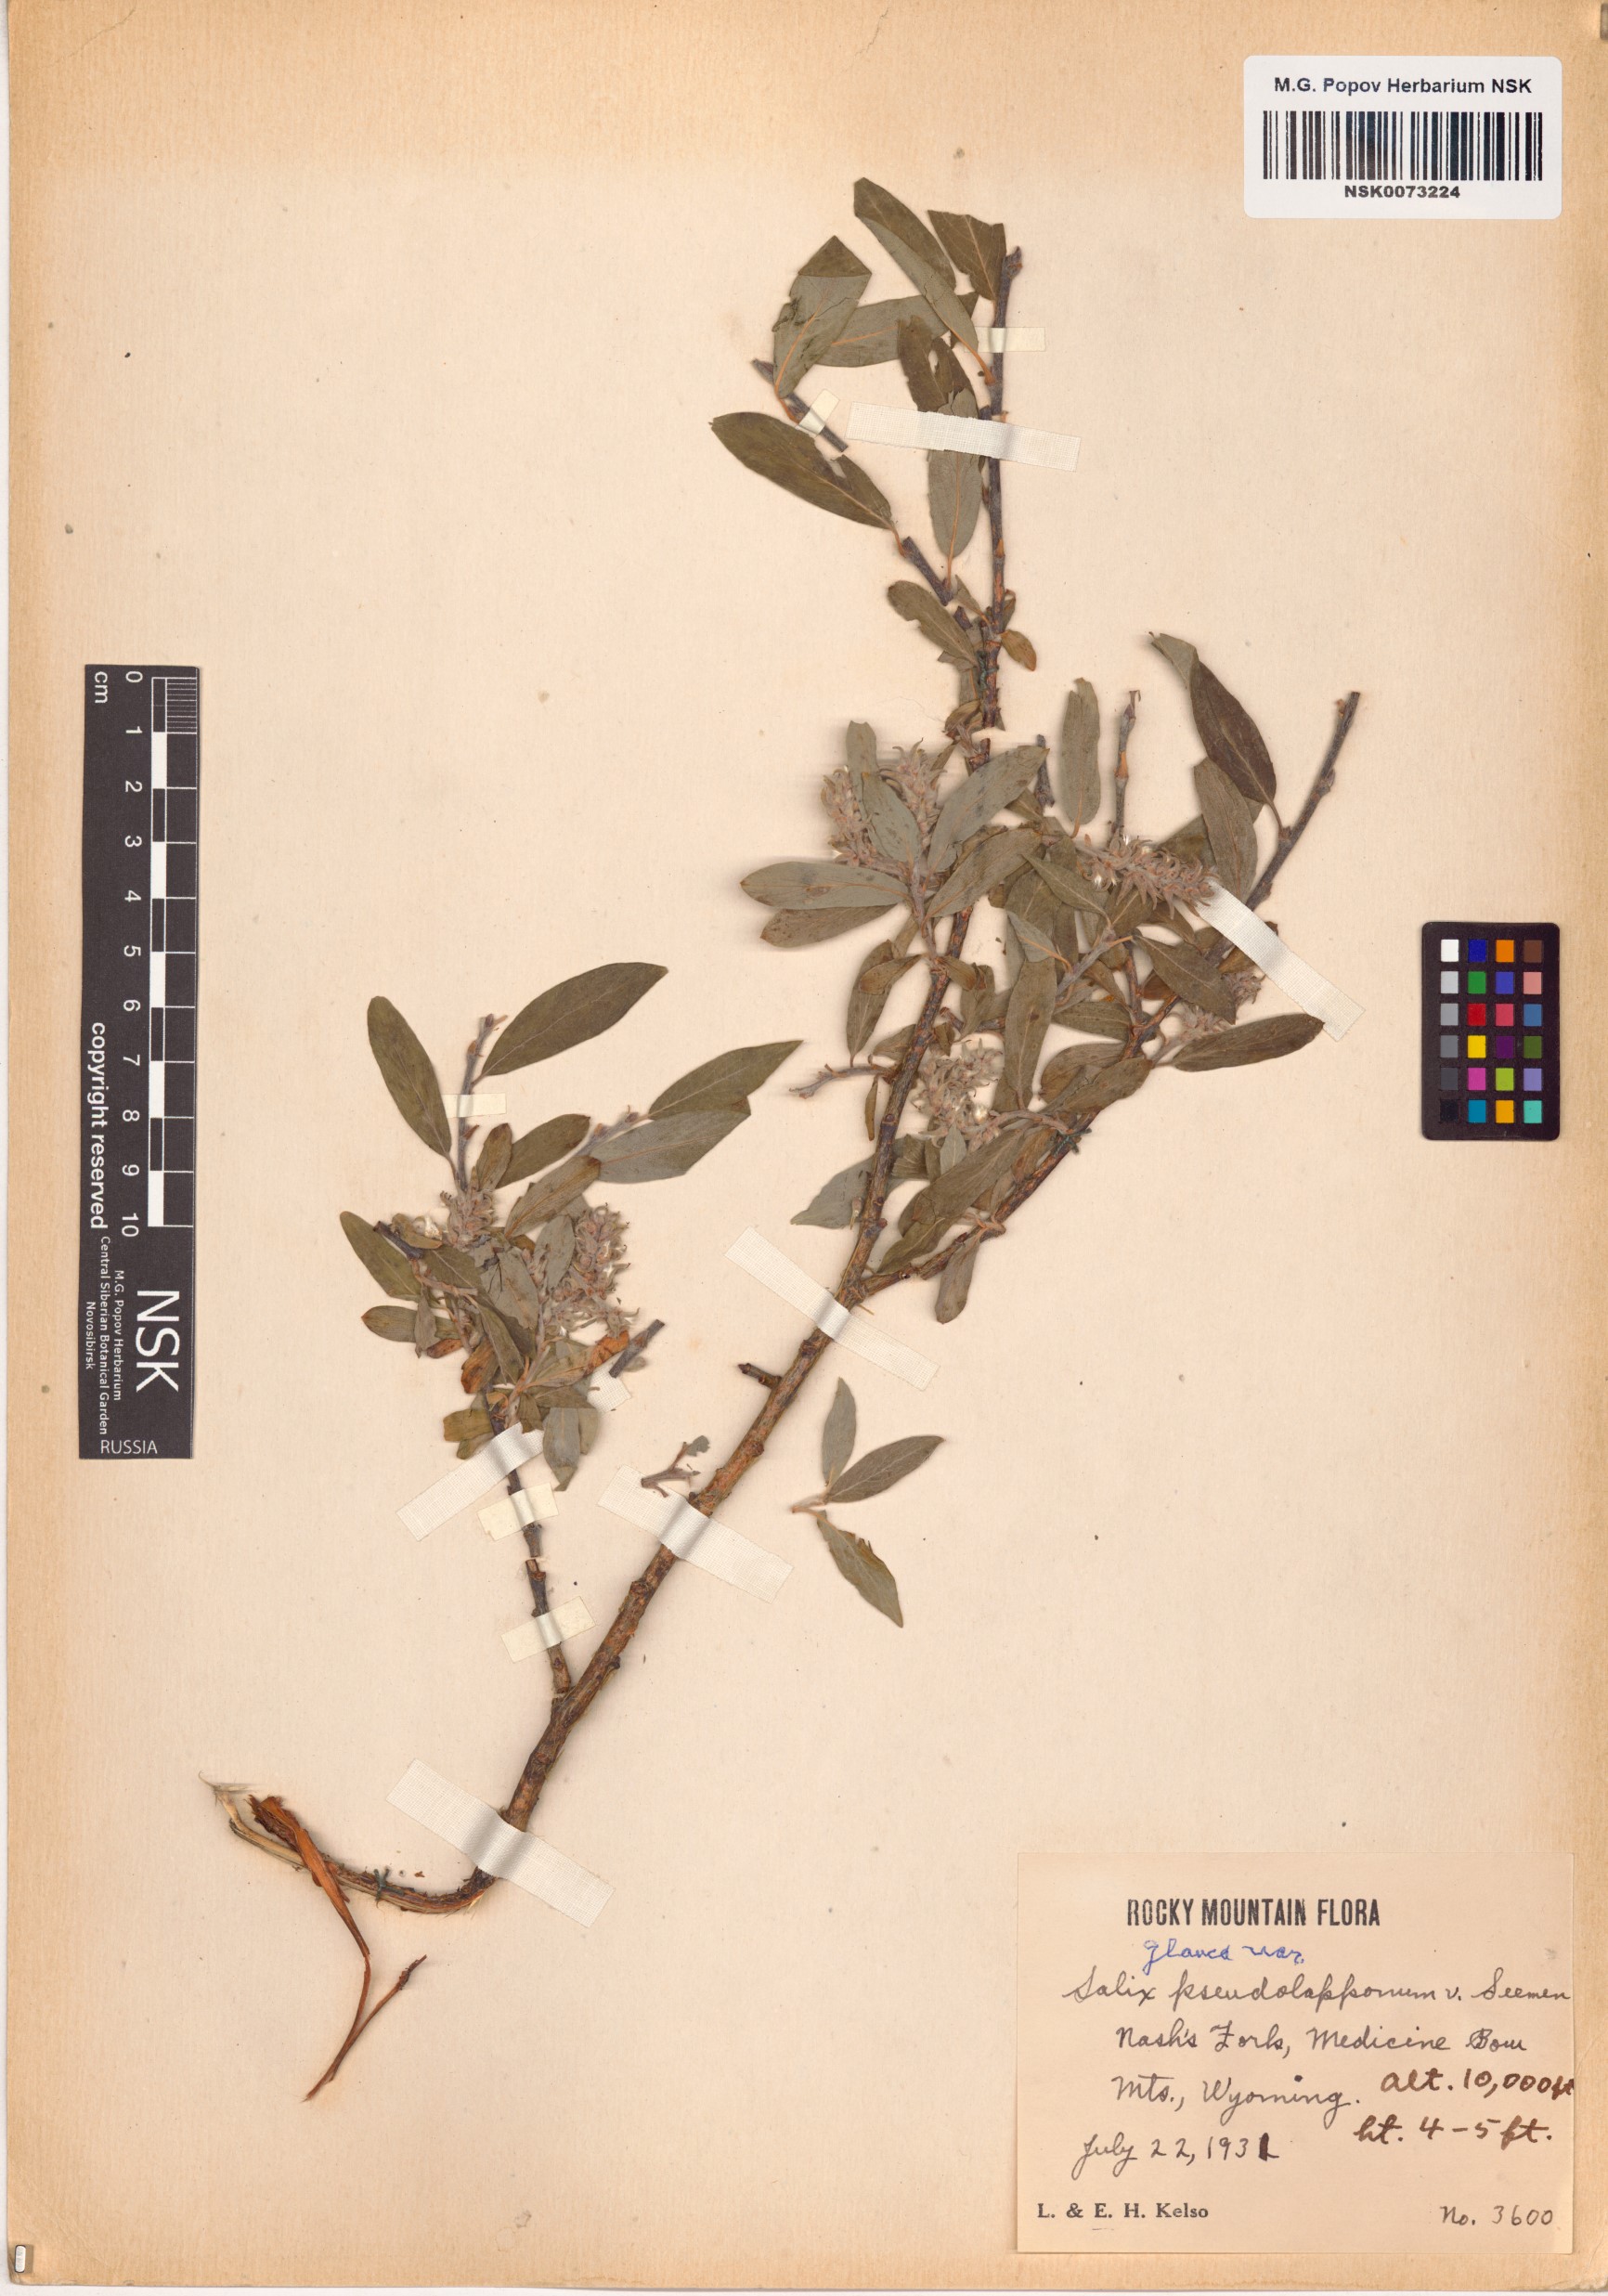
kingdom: Plantae
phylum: Tracheophyta
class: Magnoliopsida
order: Malpighiales
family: Salicaceae
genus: Salix
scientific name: Salix glauca
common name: Glaucous willow
